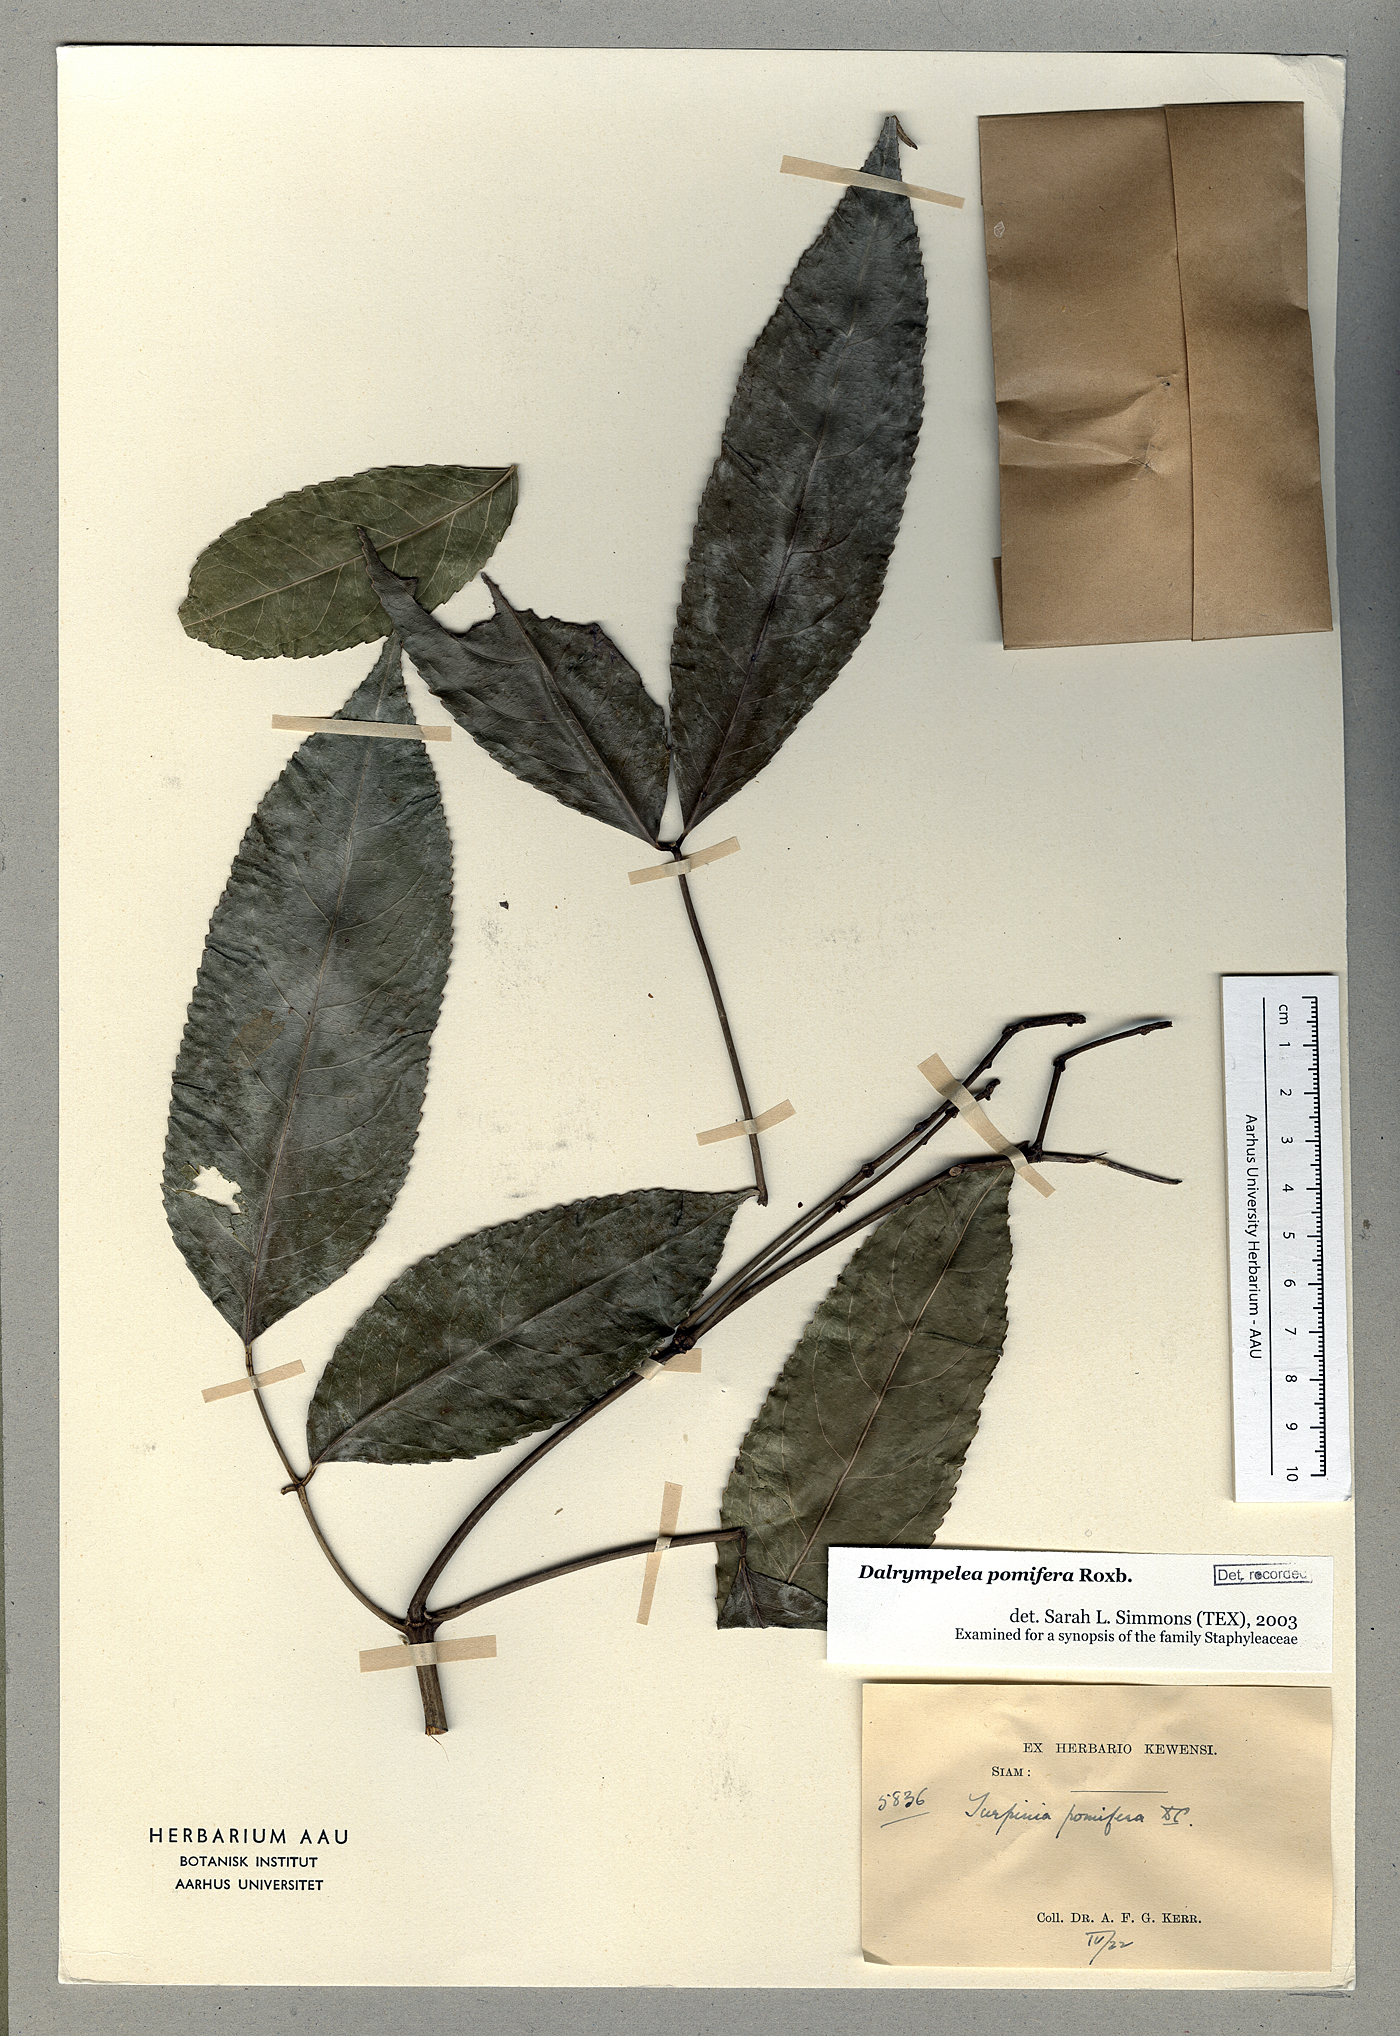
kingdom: Plantae
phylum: Tracheophyta
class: Magnoliopsida
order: Crossosomatales
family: Staphyleaceae
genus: Dalrympelea
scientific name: Dalrympelea pomifera
